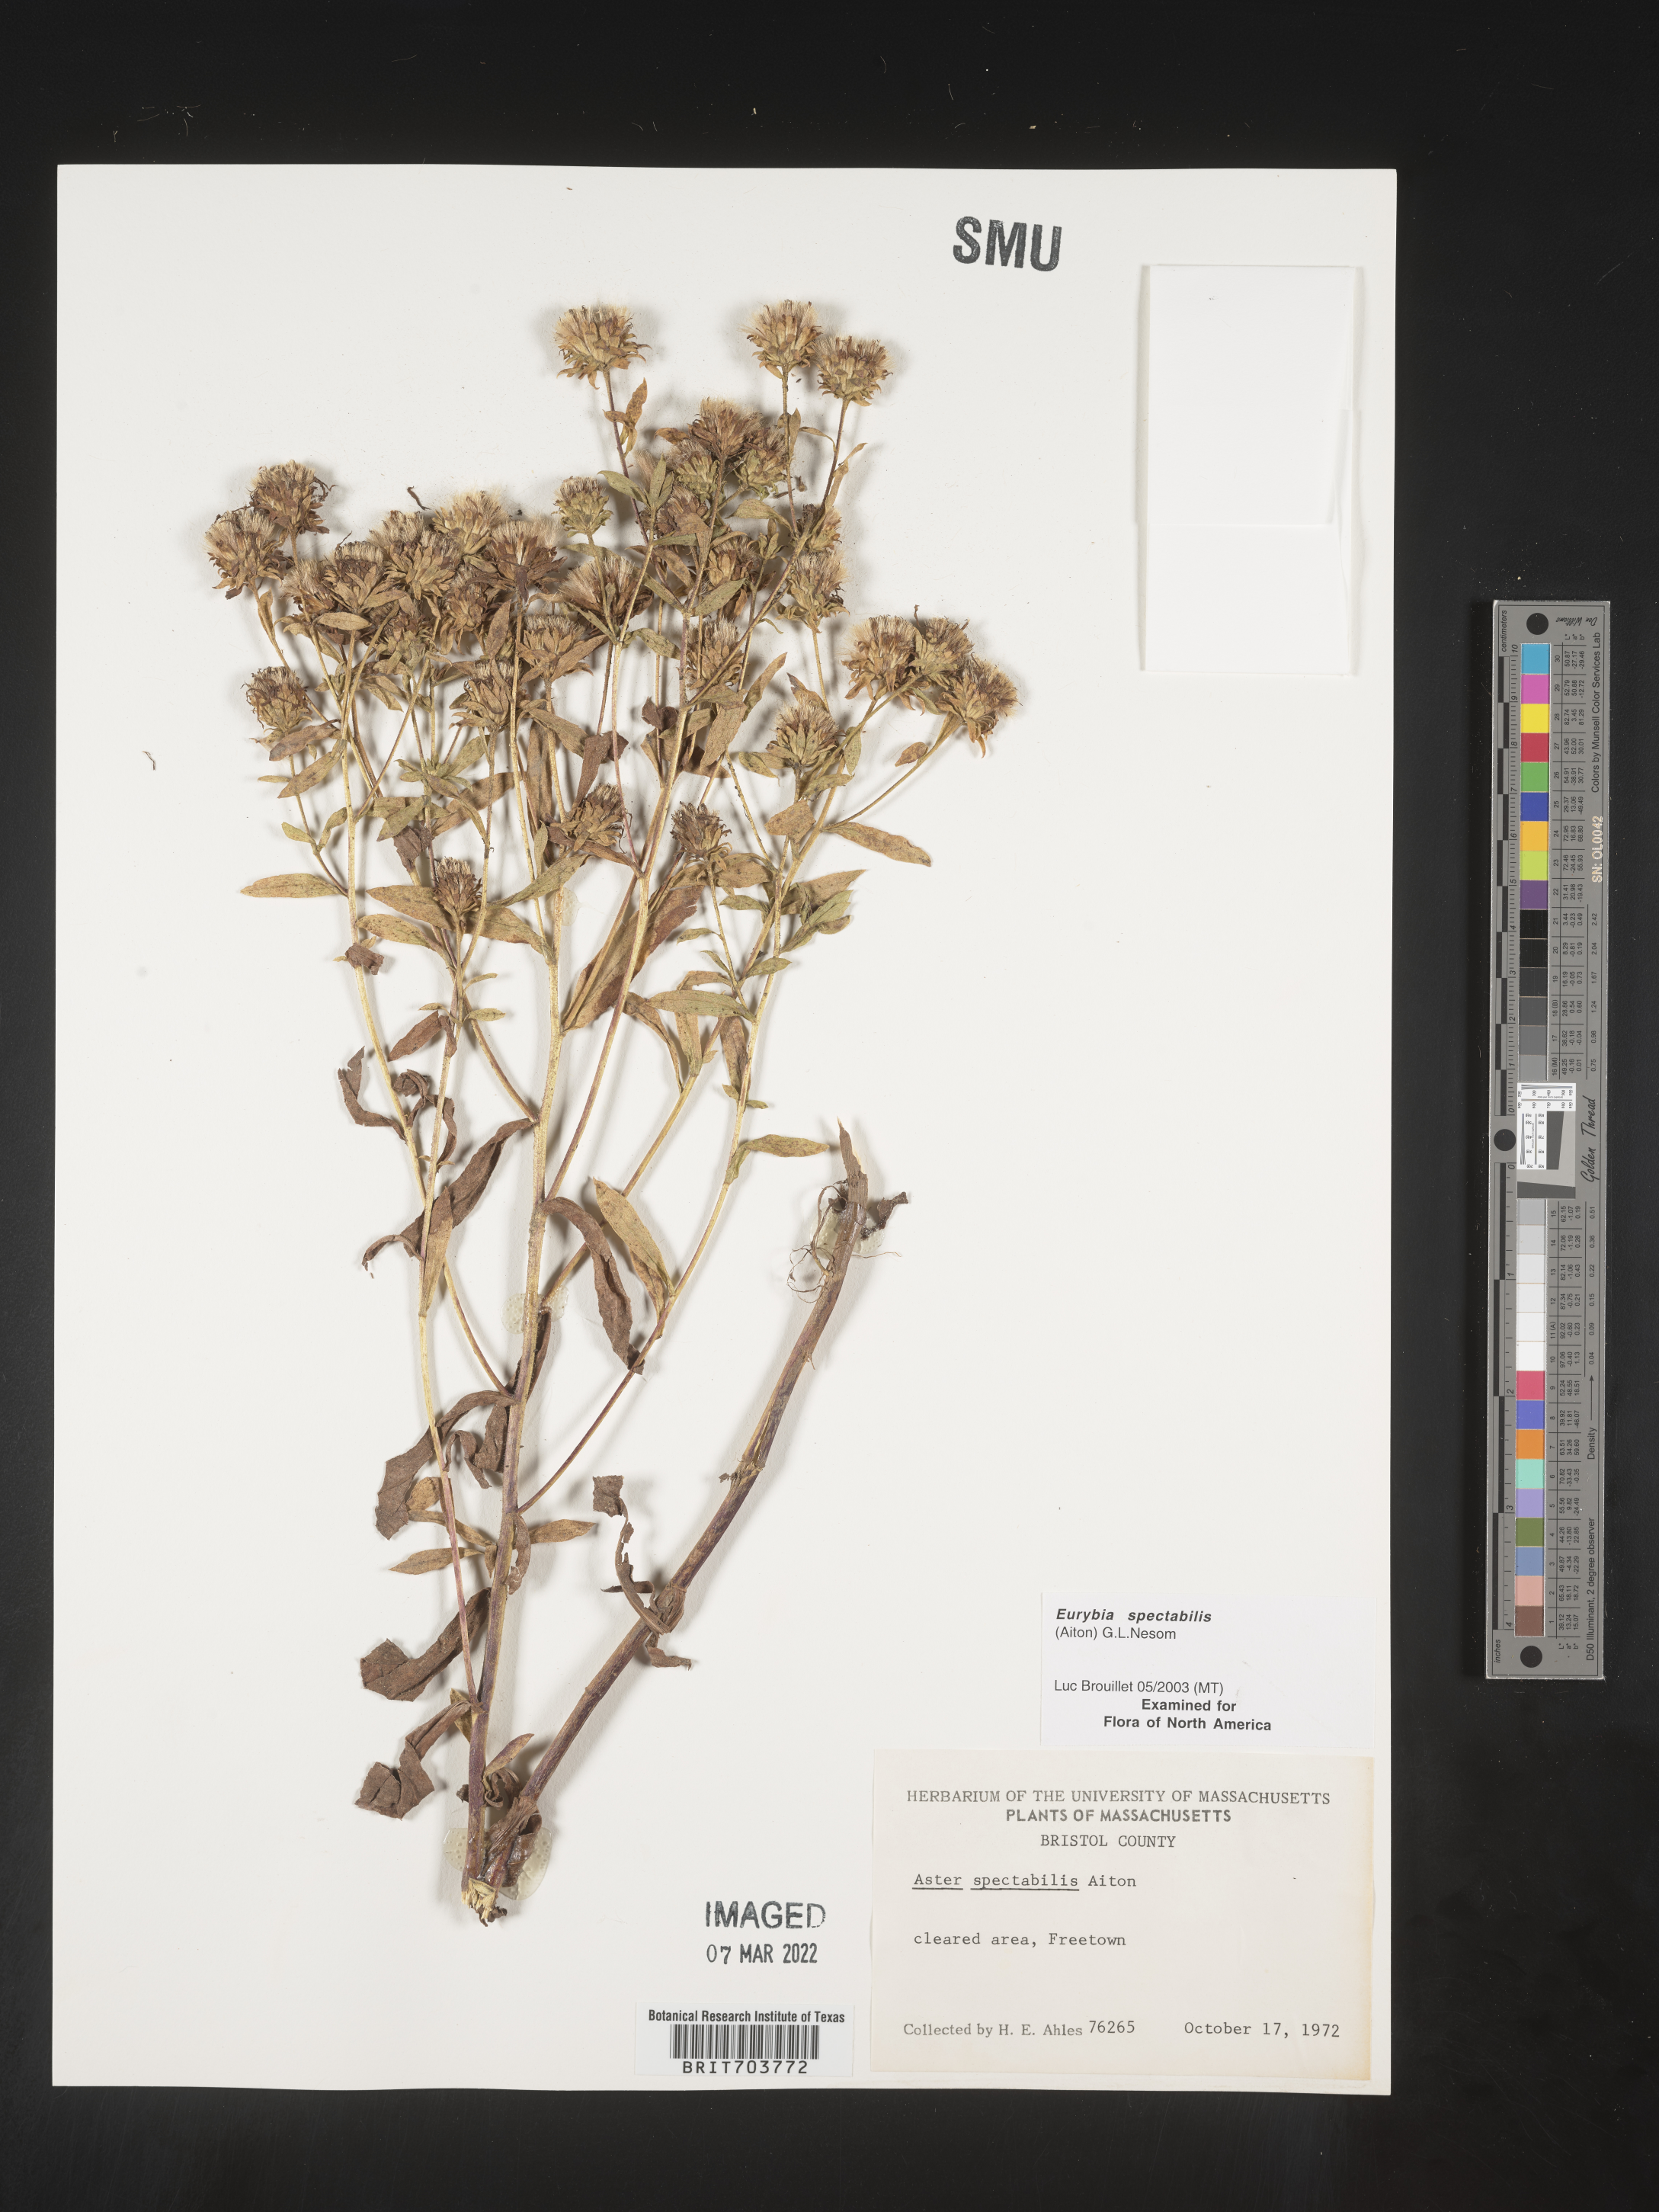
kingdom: Plantae
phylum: Tracheophyta
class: Magnoliopsida
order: Asterales
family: Asteraceae
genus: Eurybia
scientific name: Eurybia spectabilis
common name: Low showy aster
